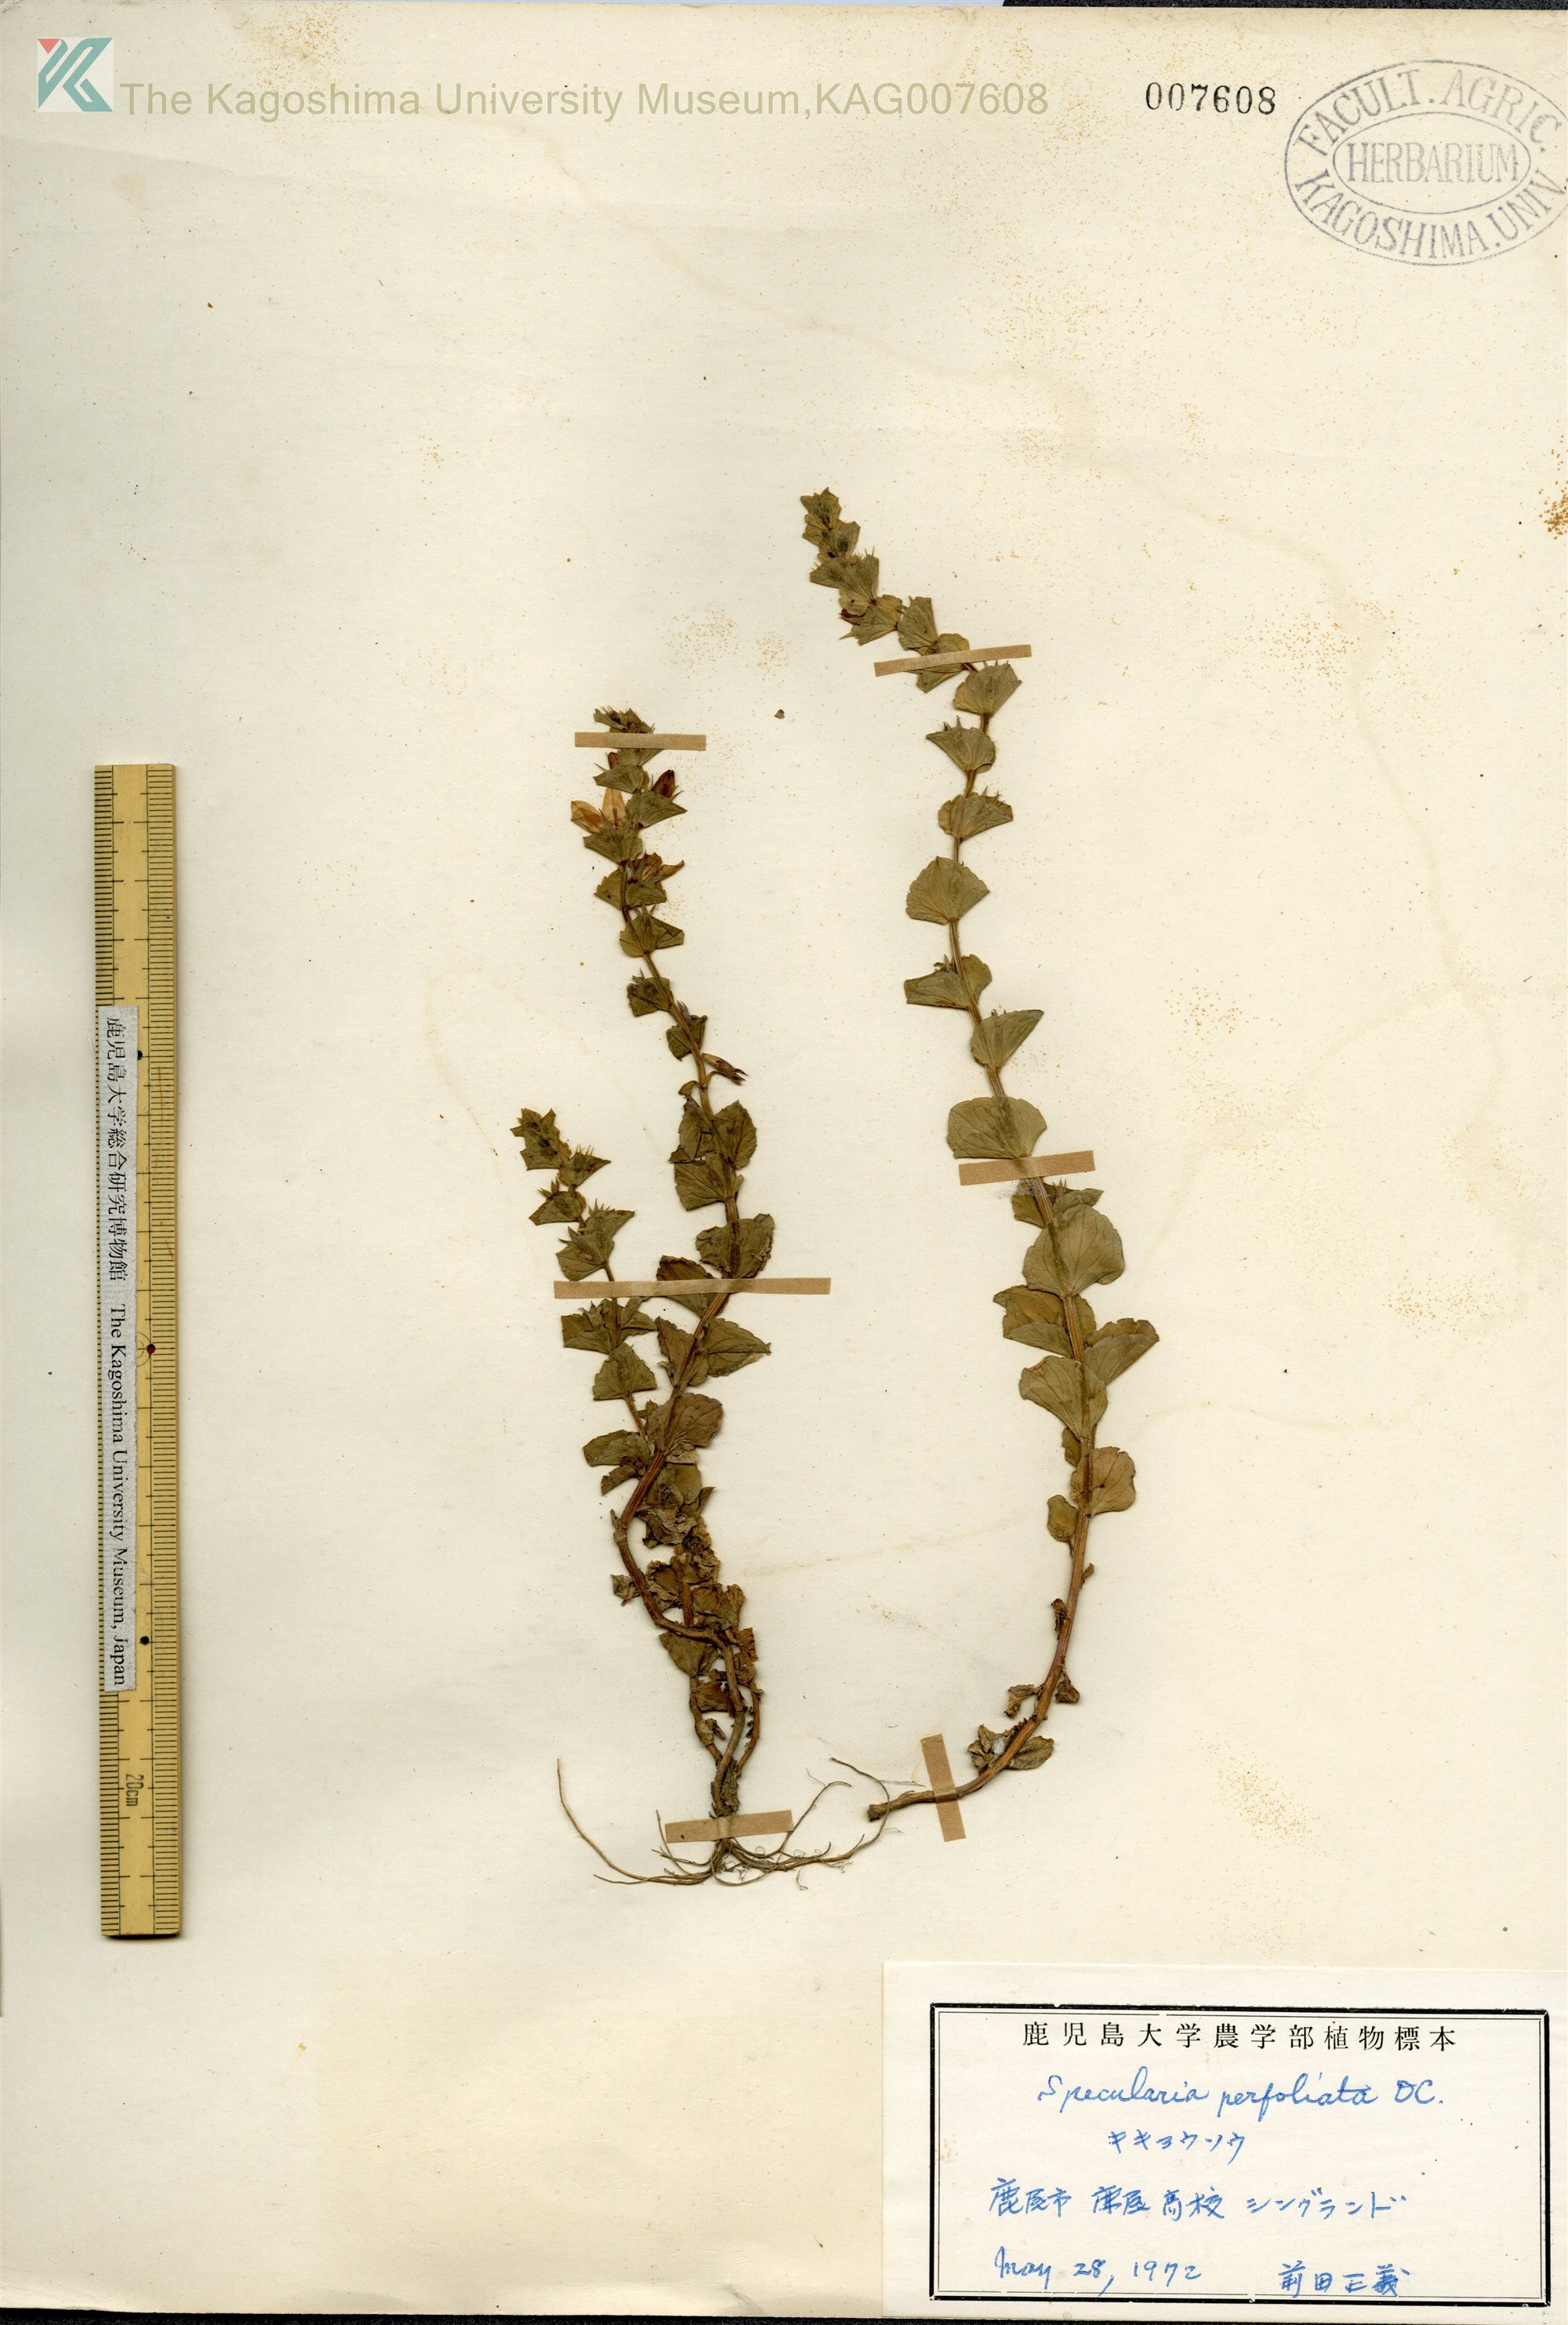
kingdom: Plantae
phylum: Tracheophyta
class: Magnoliopsida
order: Asterales
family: Campanulaceae
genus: Triodanis
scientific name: Triodanis perfoliata
